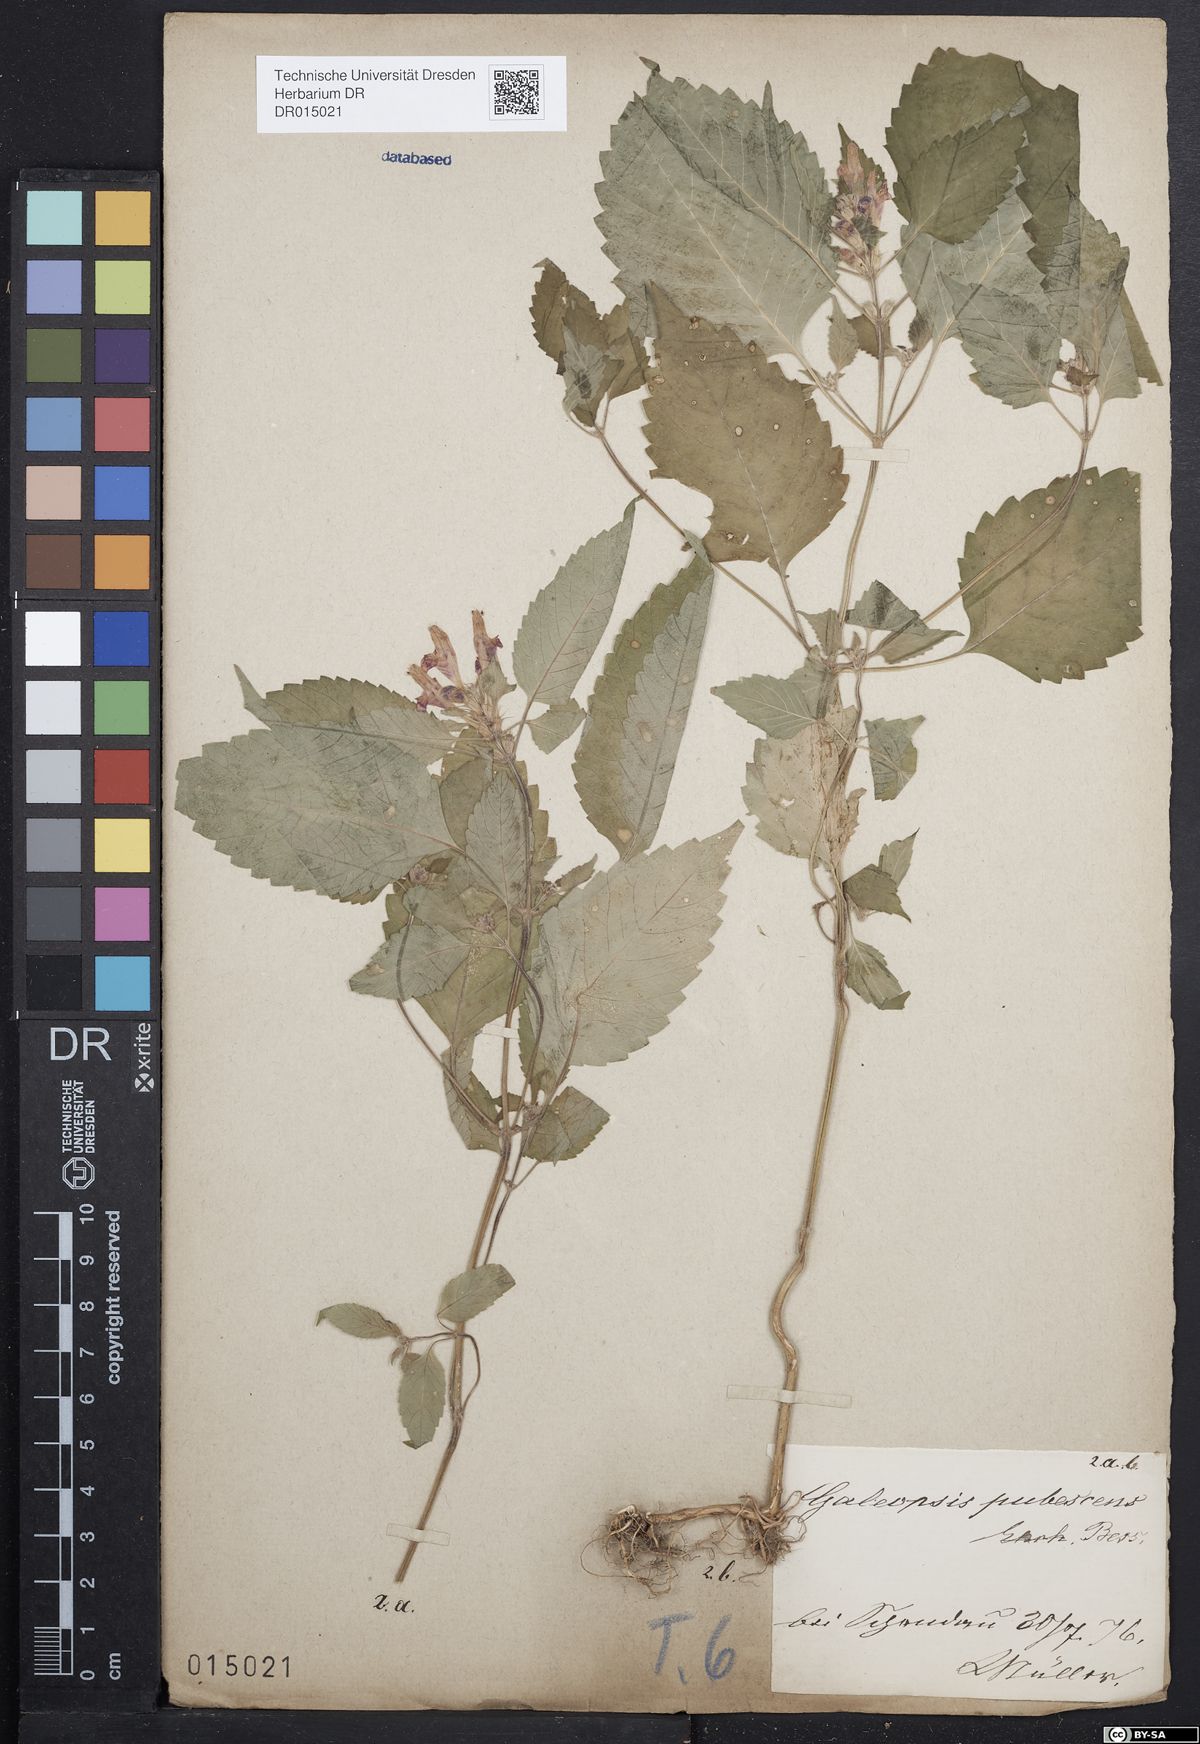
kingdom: Plantae
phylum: Tracheophyta
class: Magnoliopsida
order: Lamiales
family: Lamiaceae
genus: Galeopsis
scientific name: Galeopsis pubescens
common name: Downy hemp-nettle
